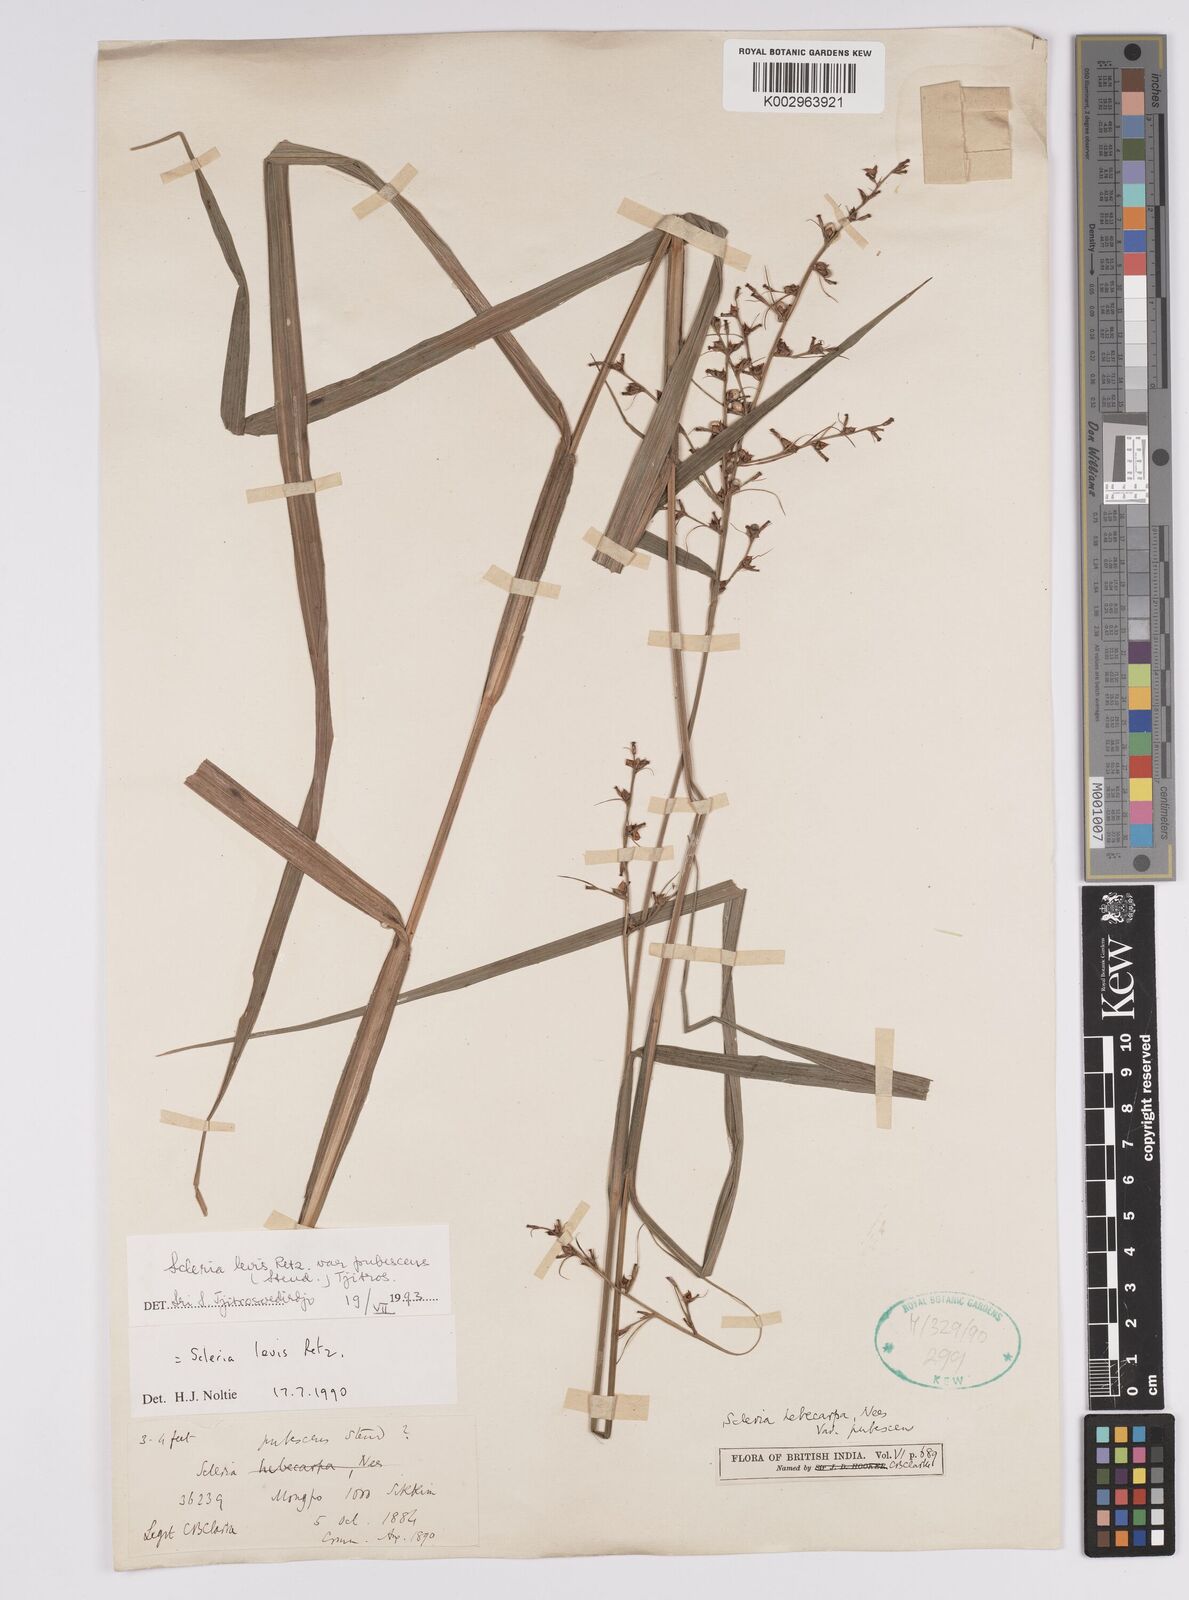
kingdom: Plantae
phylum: Tracheophyta
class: Liliopsida
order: Poales
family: Cyperaceae
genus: Scleria
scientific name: Scleria levis
